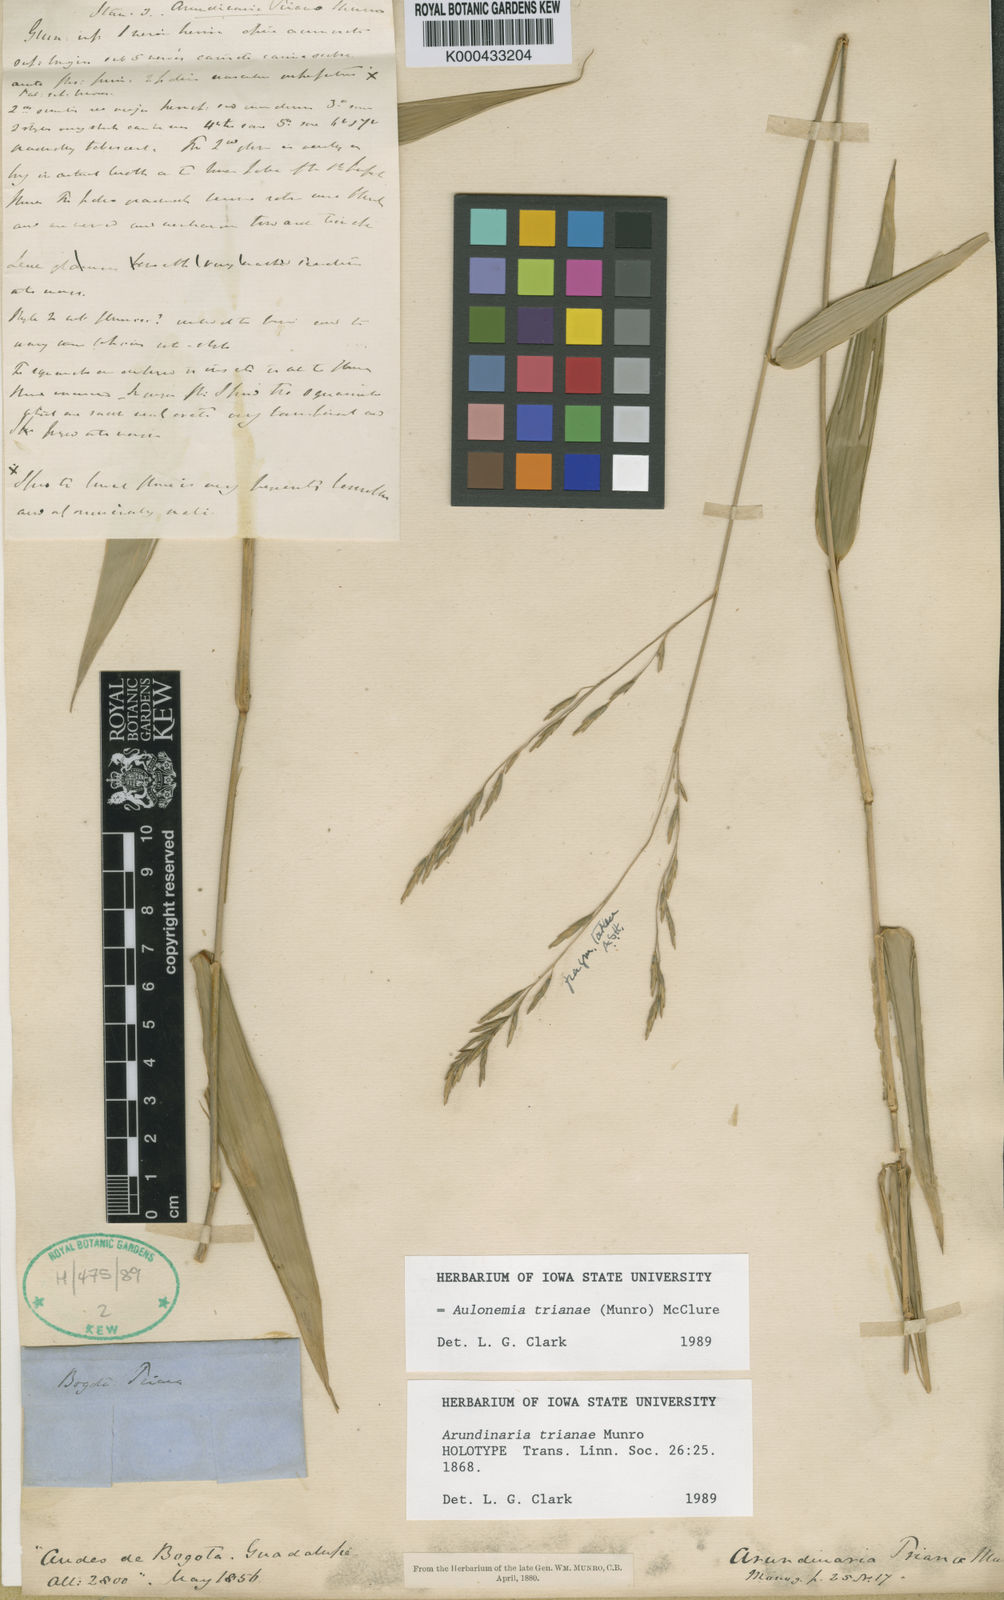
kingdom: Plantae
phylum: Tracheophyta
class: Liliopsida
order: Poales
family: Poaceae
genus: Aulonemia
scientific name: Aulonemia trianae
